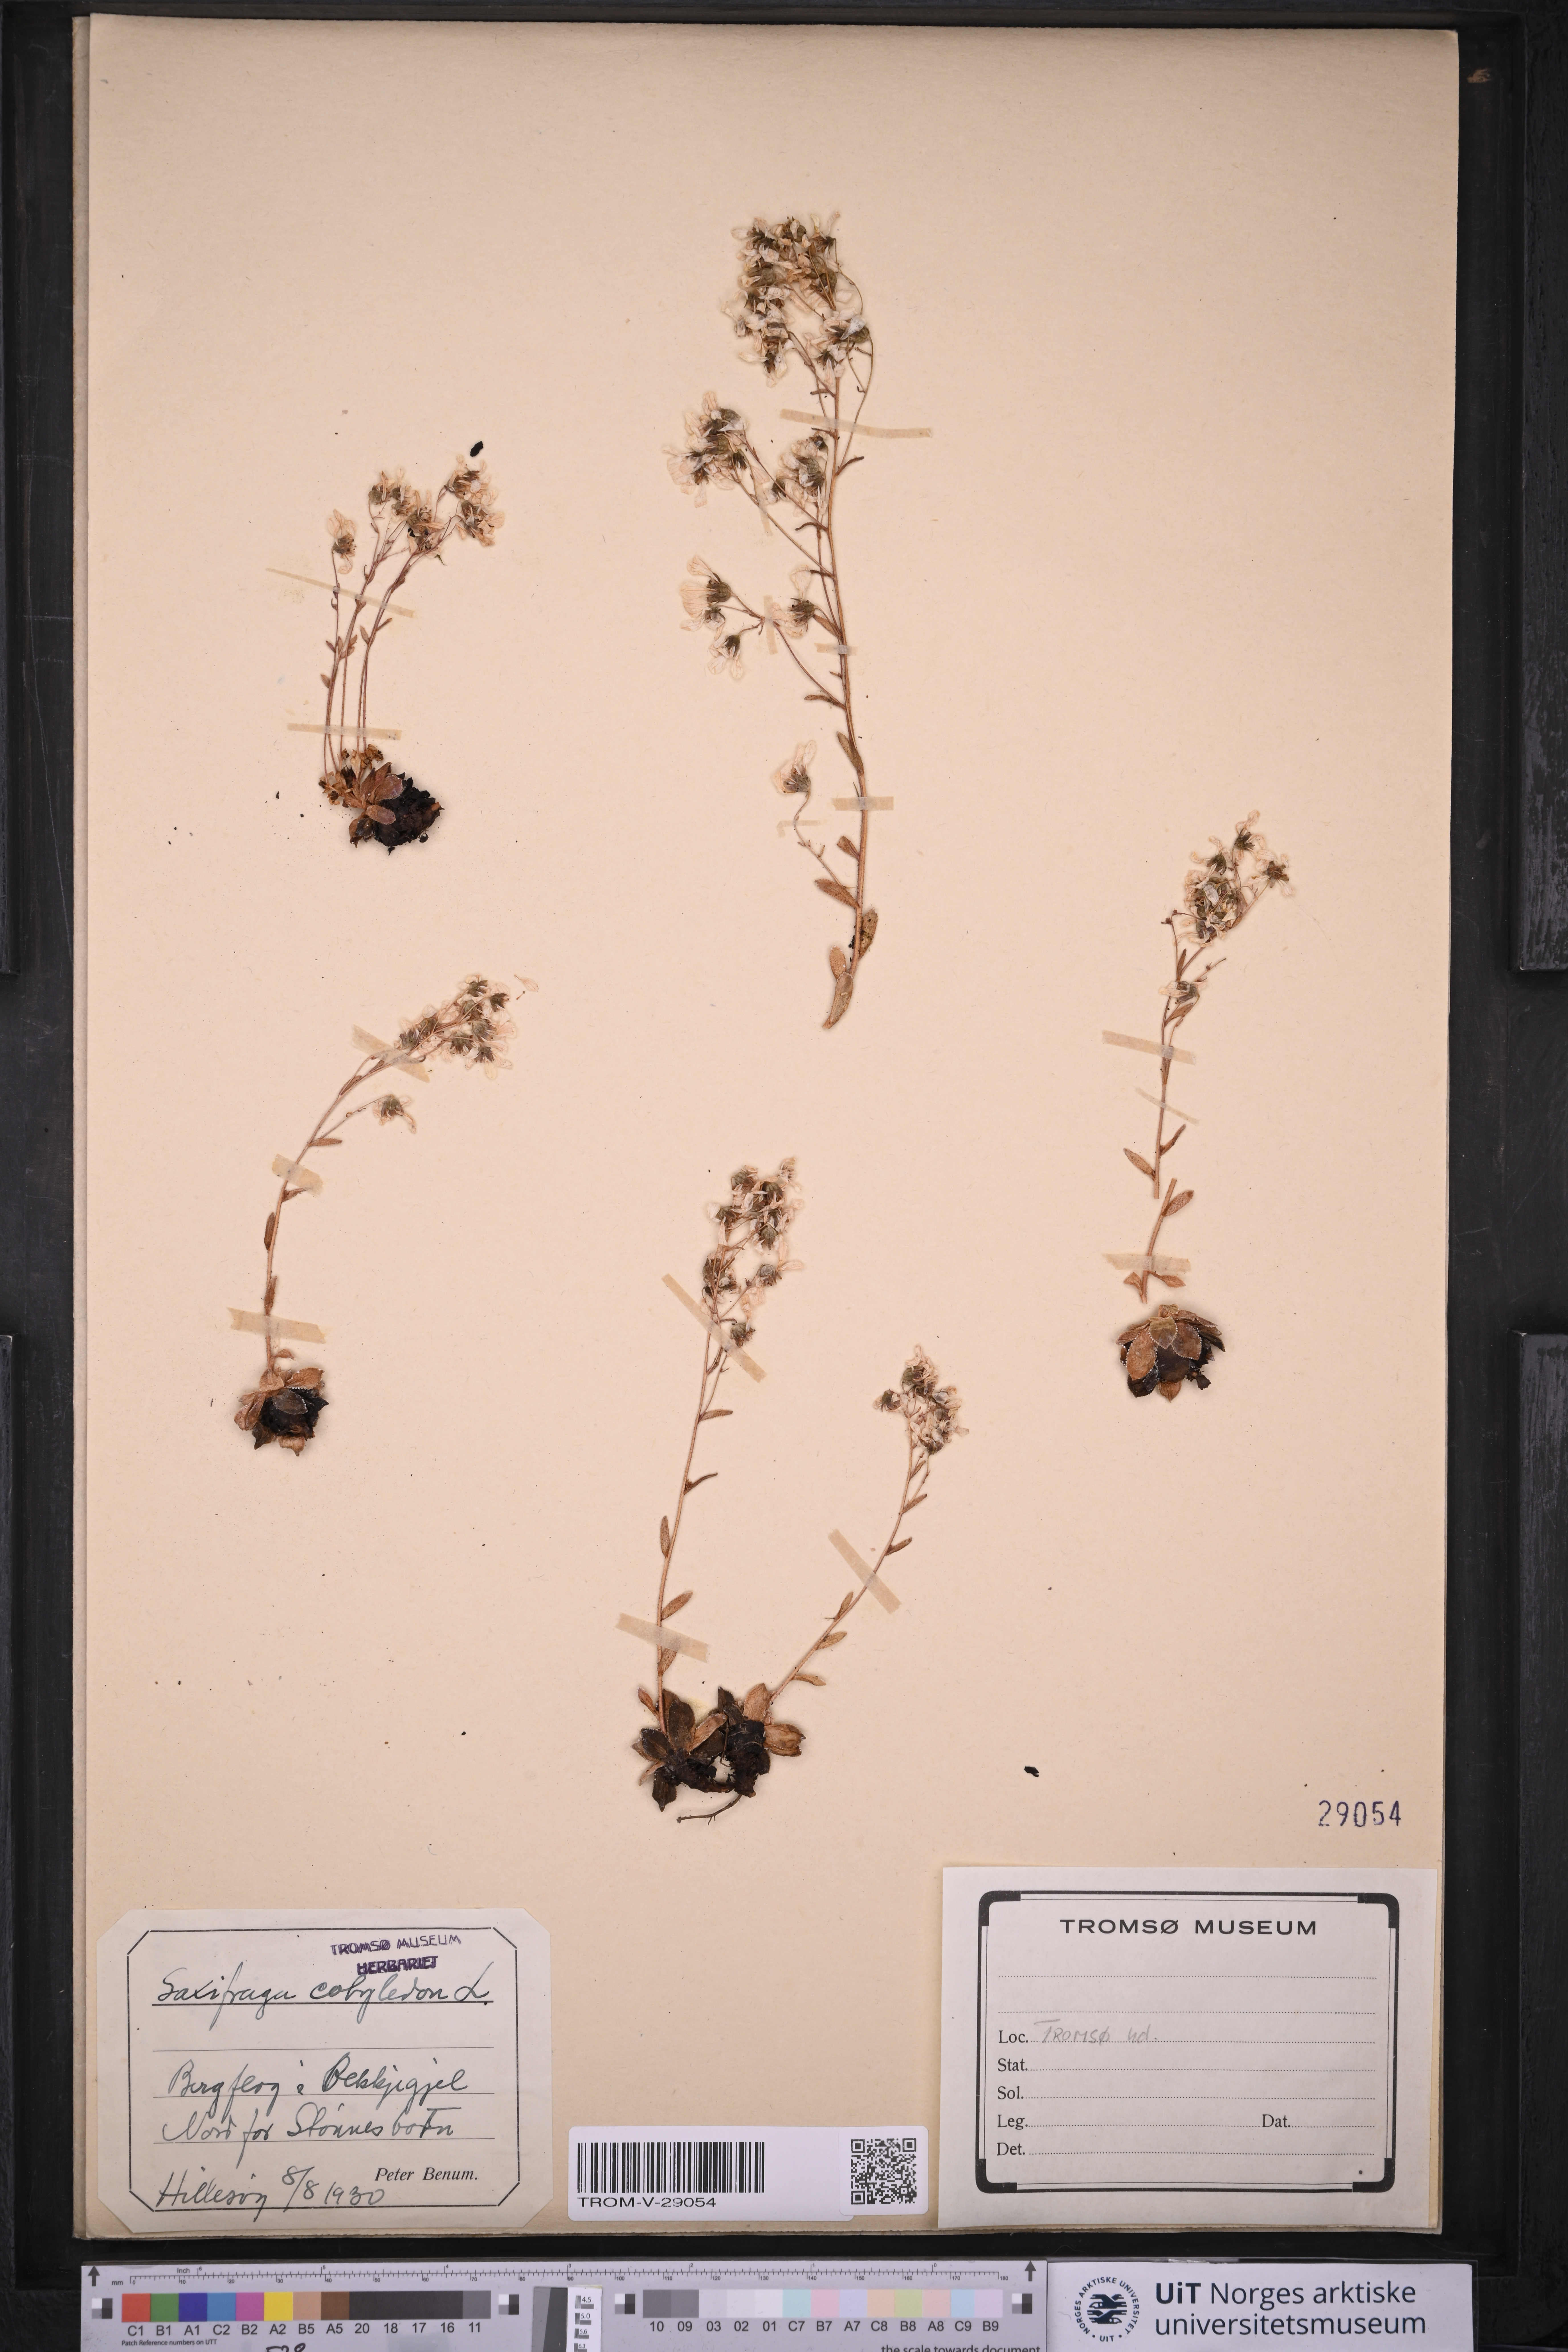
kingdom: Plantae
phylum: Tracheophyta
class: Magnoliopsida
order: Saxifragales
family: Saxifragaceae
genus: Saxifraga
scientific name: Saxifraga cotyledon
